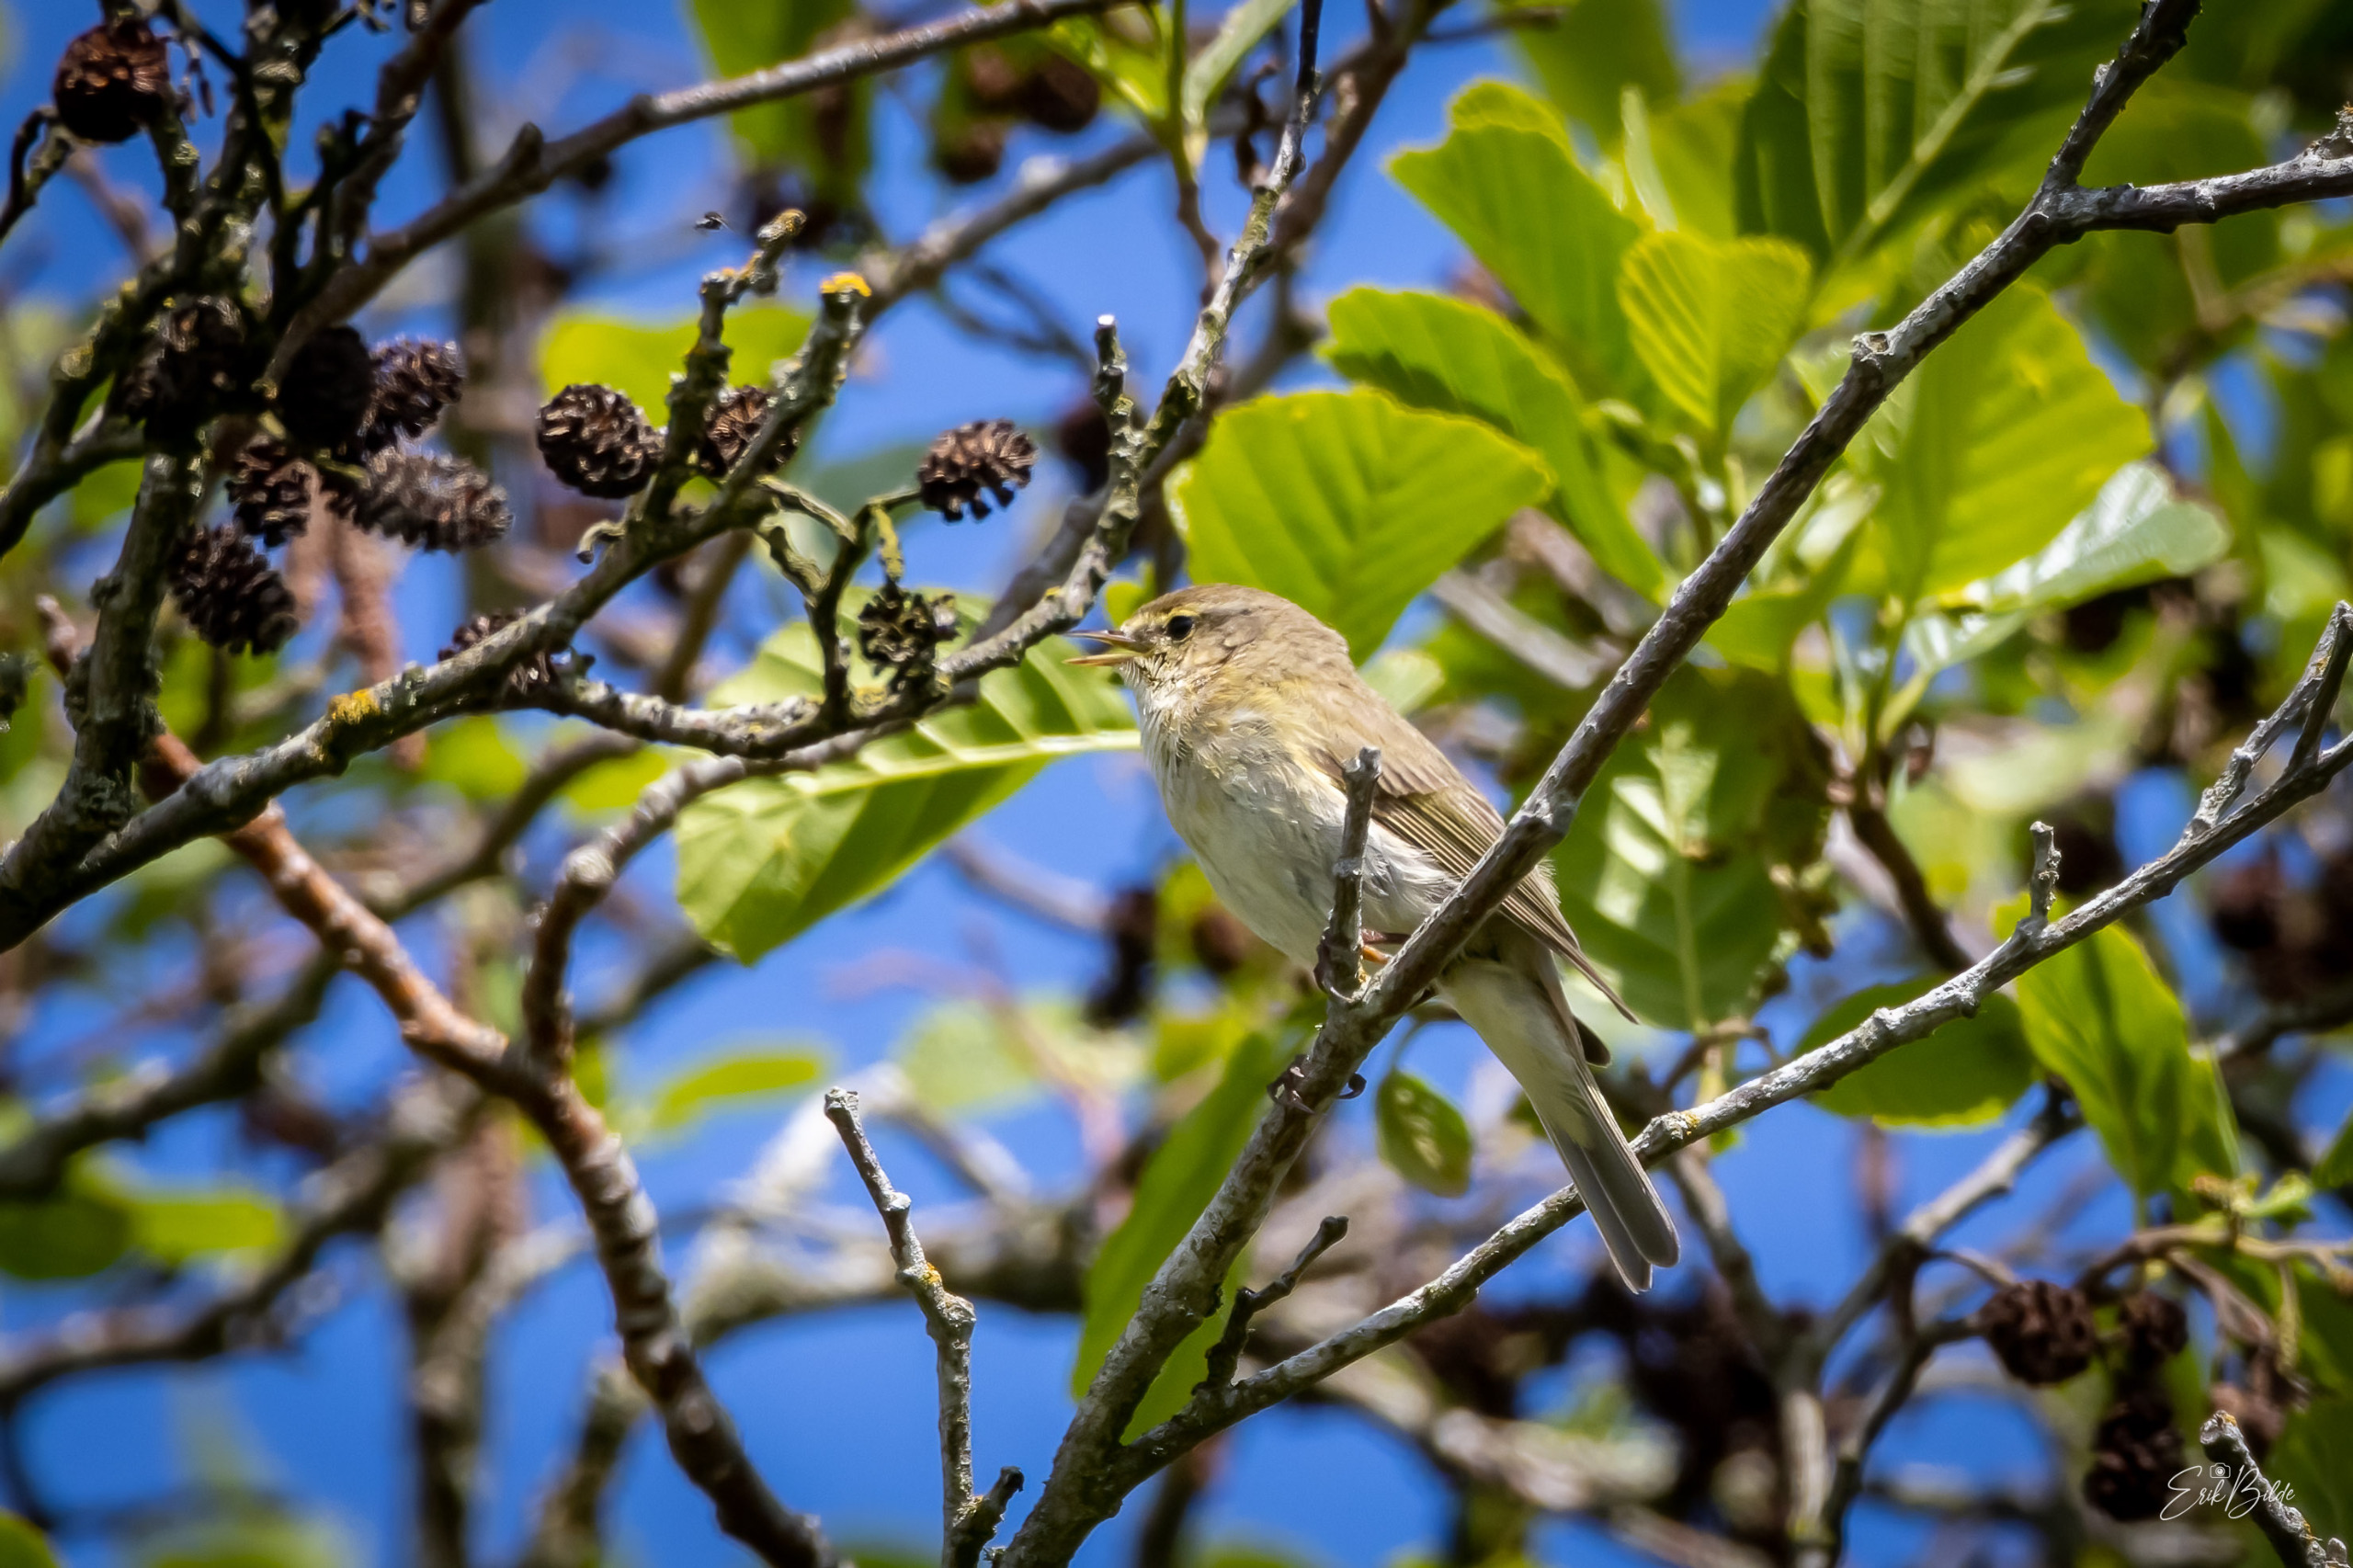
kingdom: Animalia
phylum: Chordata
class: Aves
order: Passeriformes
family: Phylloscopidae
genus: Phylloscopus
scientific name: Phylloscopus collybita
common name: Gransanger
